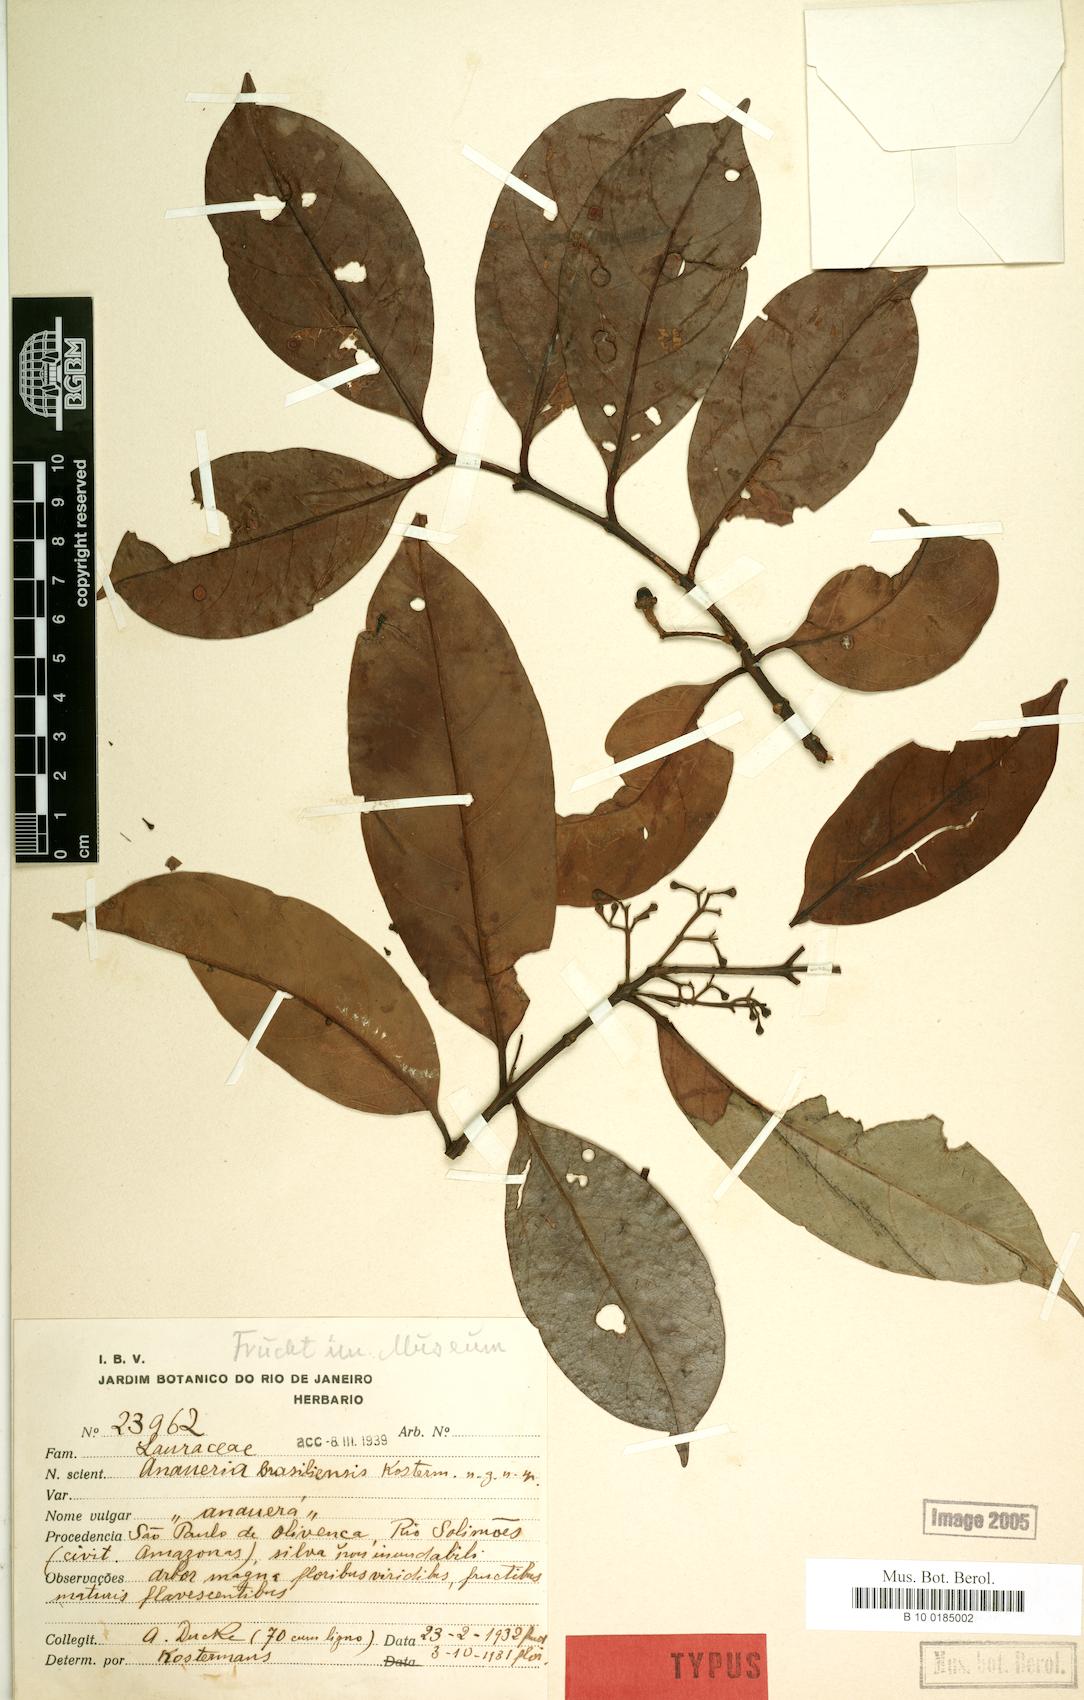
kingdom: Plantae
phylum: Tracheophyta
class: Magnoliopsida
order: Laurales
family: Lauraceae
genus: Anaueria
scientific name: Anaueria brasiliensis
